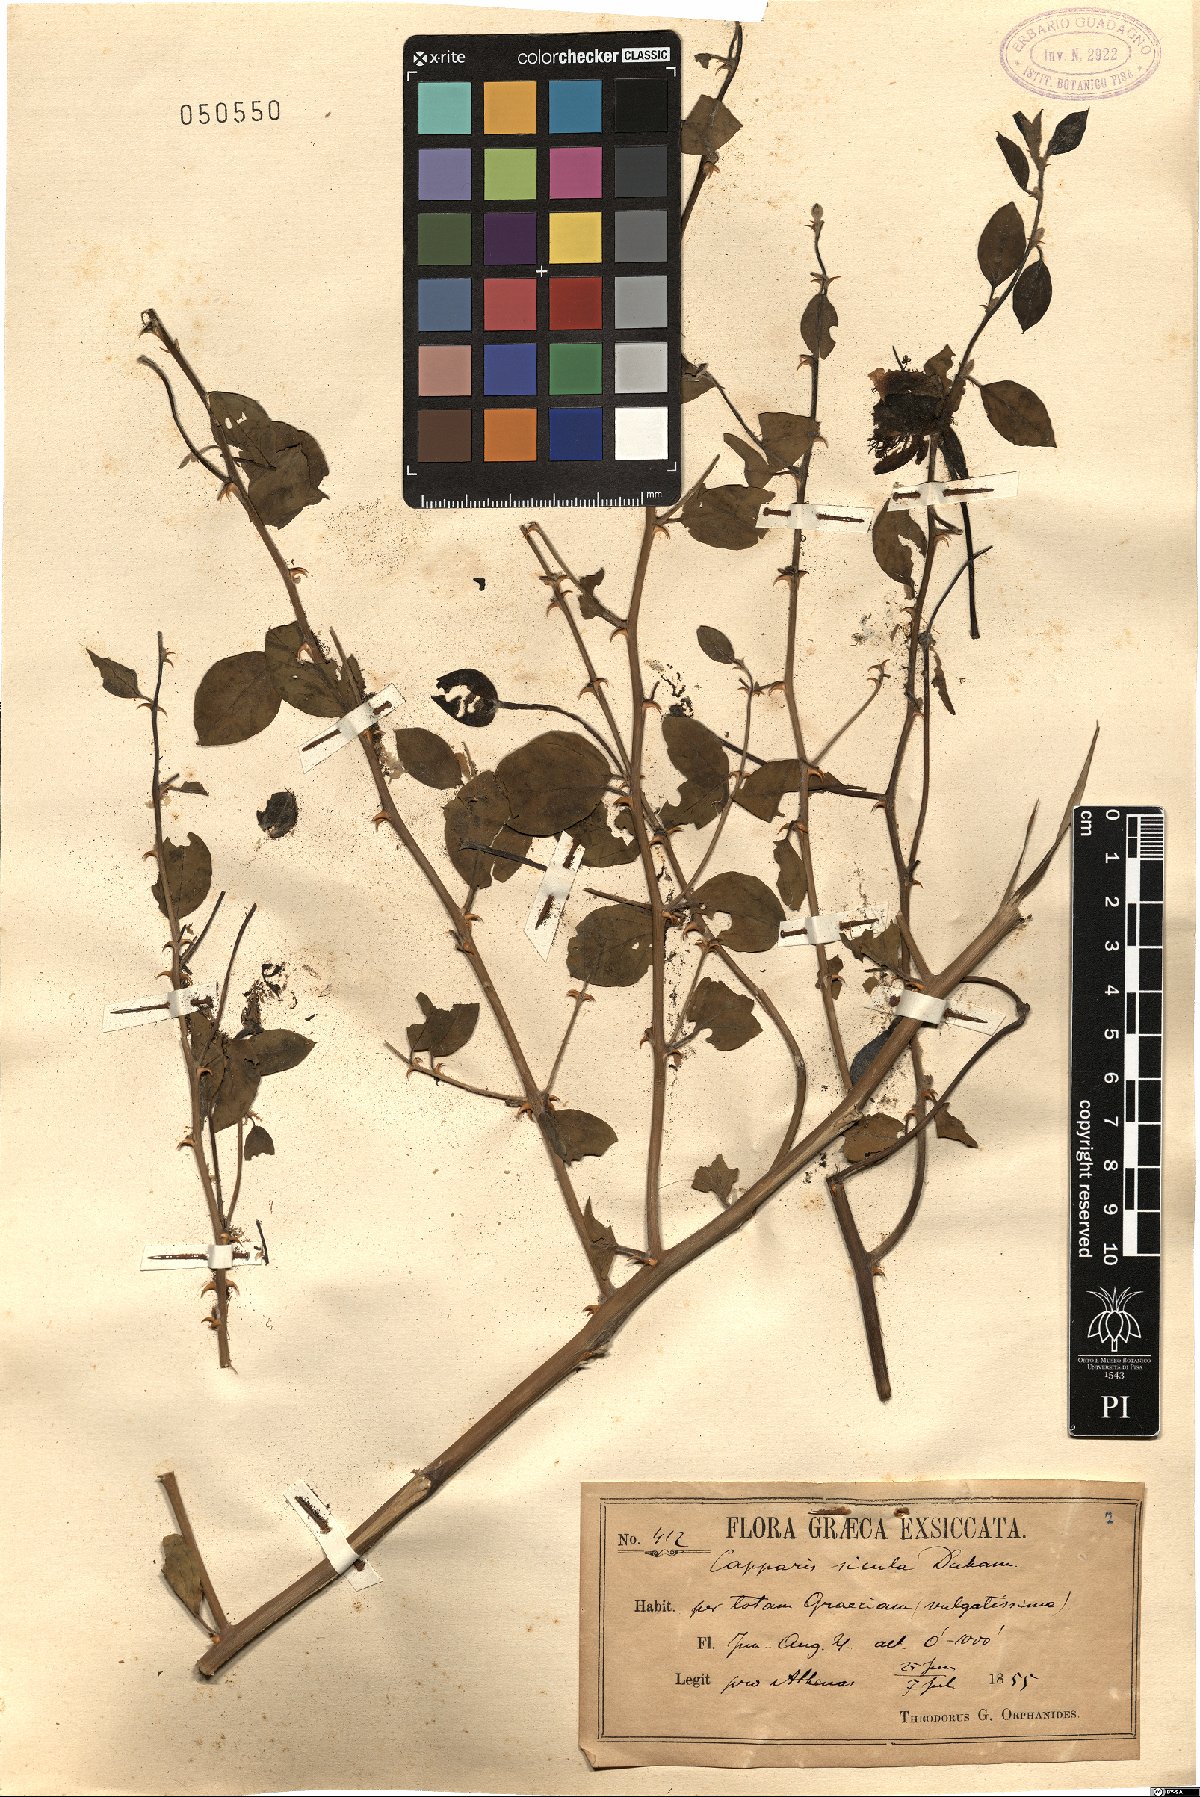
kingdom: Plantae
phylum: Tracheophyta
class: Magnoliopsida
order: Brassicales
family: Capparaceae
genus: Capparis
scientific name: Capparis spinosa
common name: Caper
